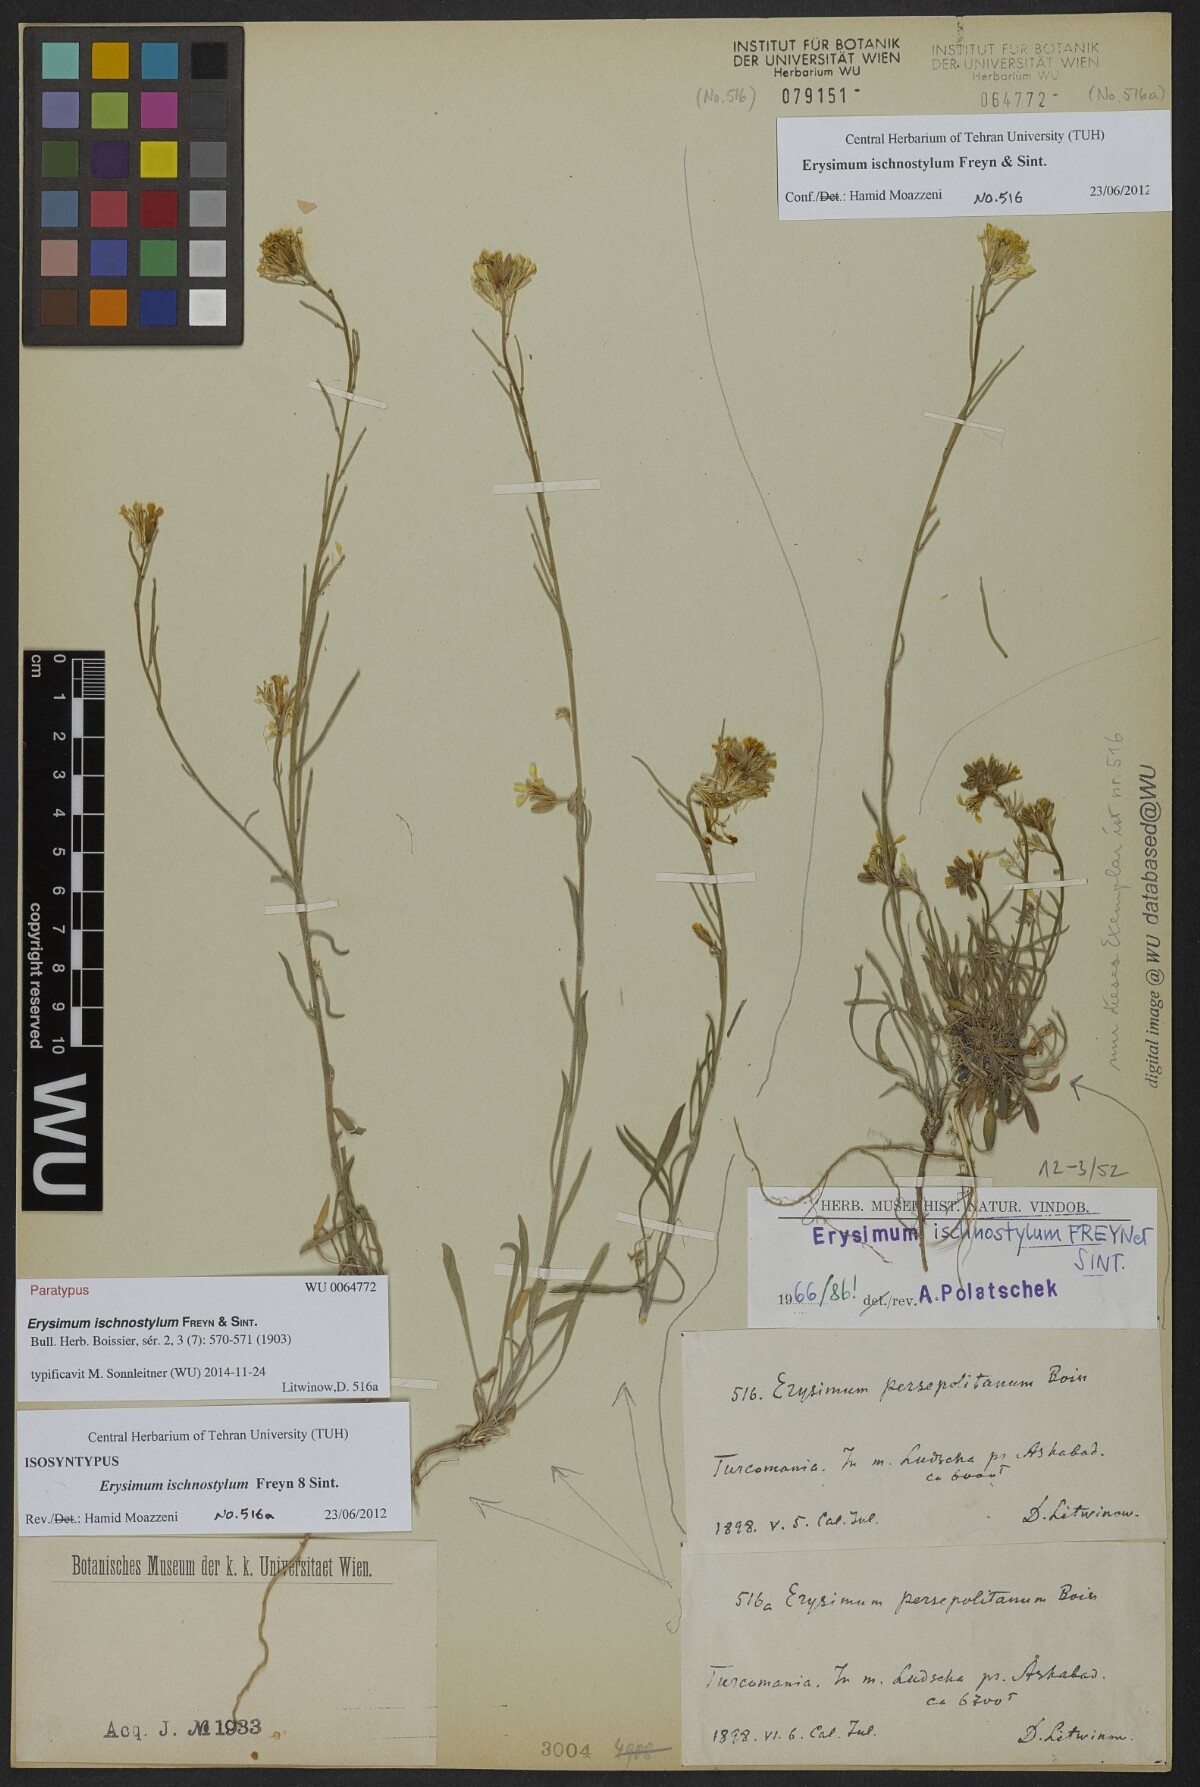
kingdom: Plantae
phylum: Tracheophyta
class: Magnoliopsida
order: Brassicales
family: Brassicaceae
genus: Erysimum
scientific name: Erysimum ischnostylum
